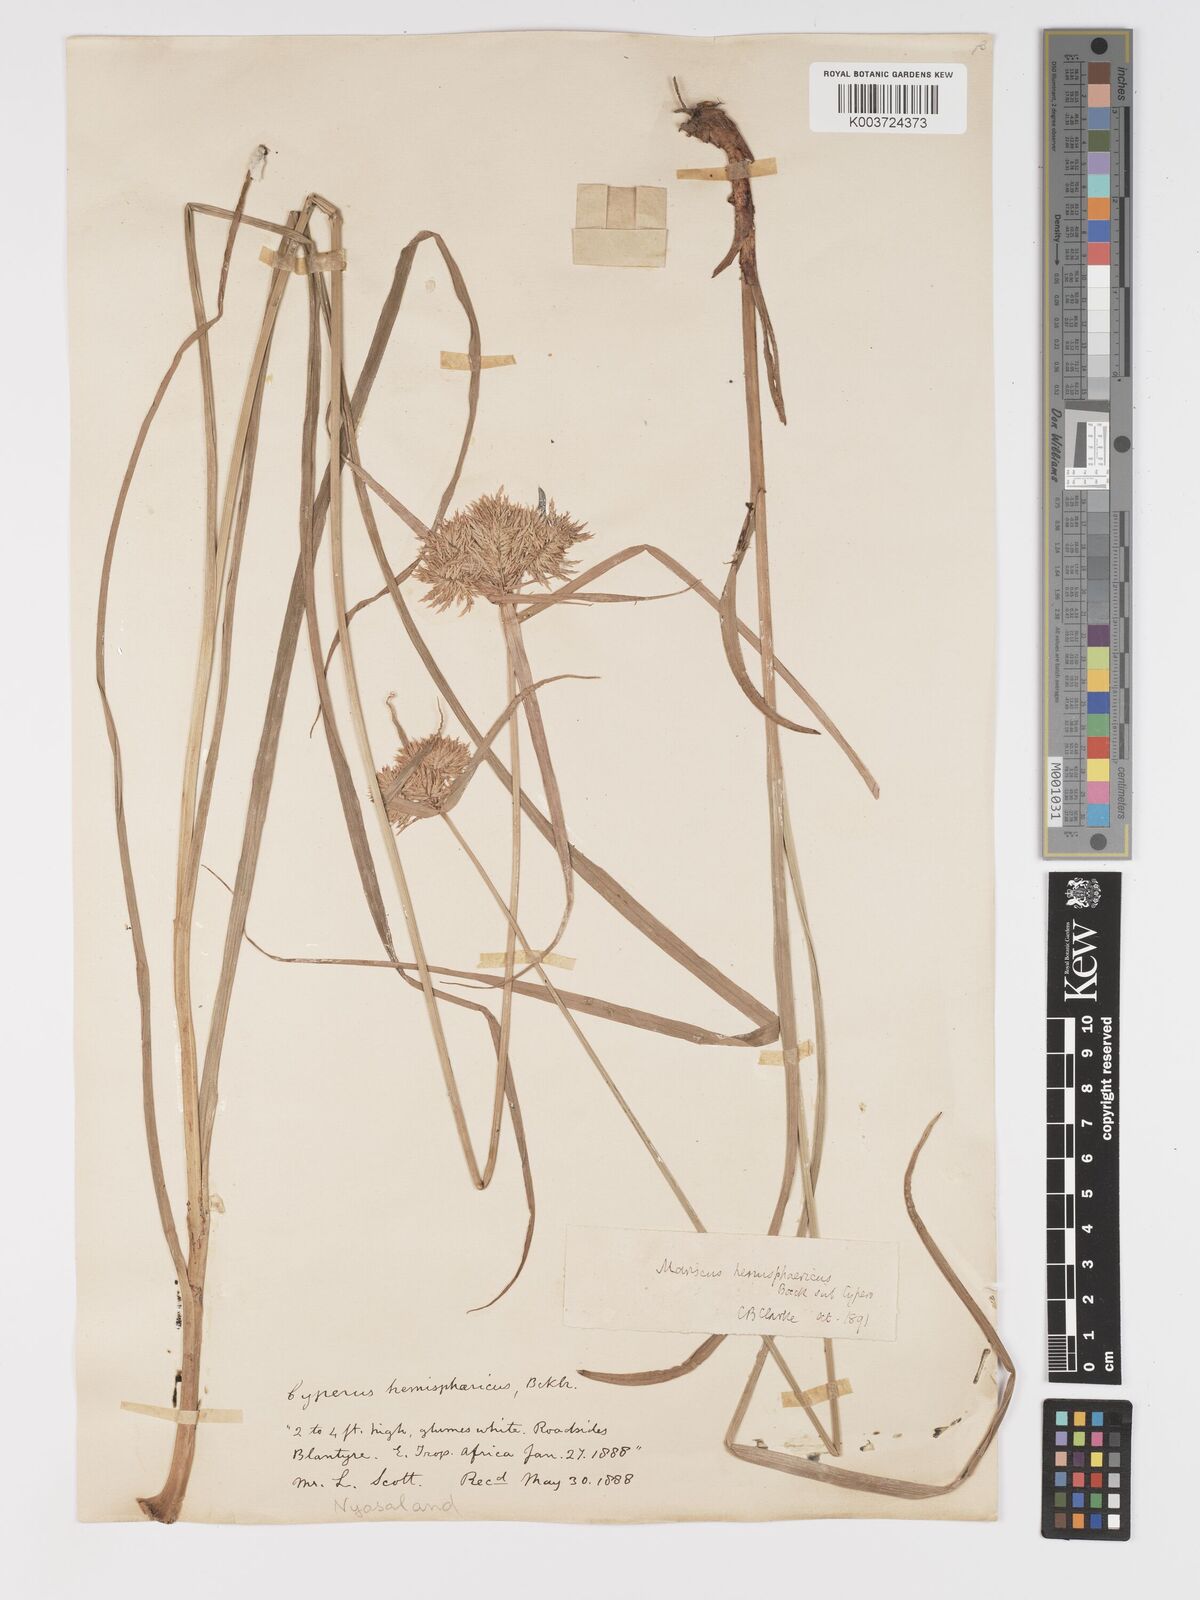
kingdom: Plantae
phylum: Tracheophyta
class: Liliopsida
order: Poales
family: Cyperaceae
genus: Cyperus
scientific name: Cyperus hemisphaericus
